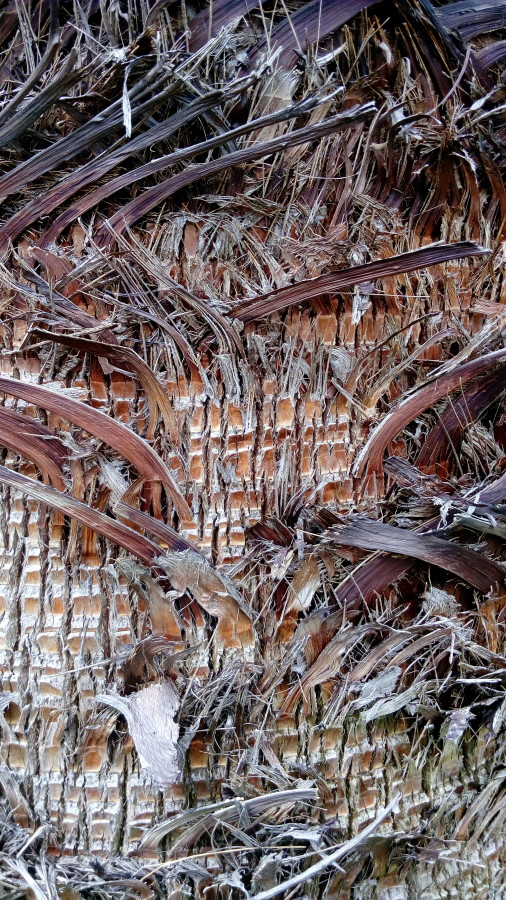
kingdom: Plantae
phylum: Tracheophyta
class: Liliopsida
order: Arecales
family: Arecaceae
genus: Washingtonia
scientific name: Washingtonia robusta
